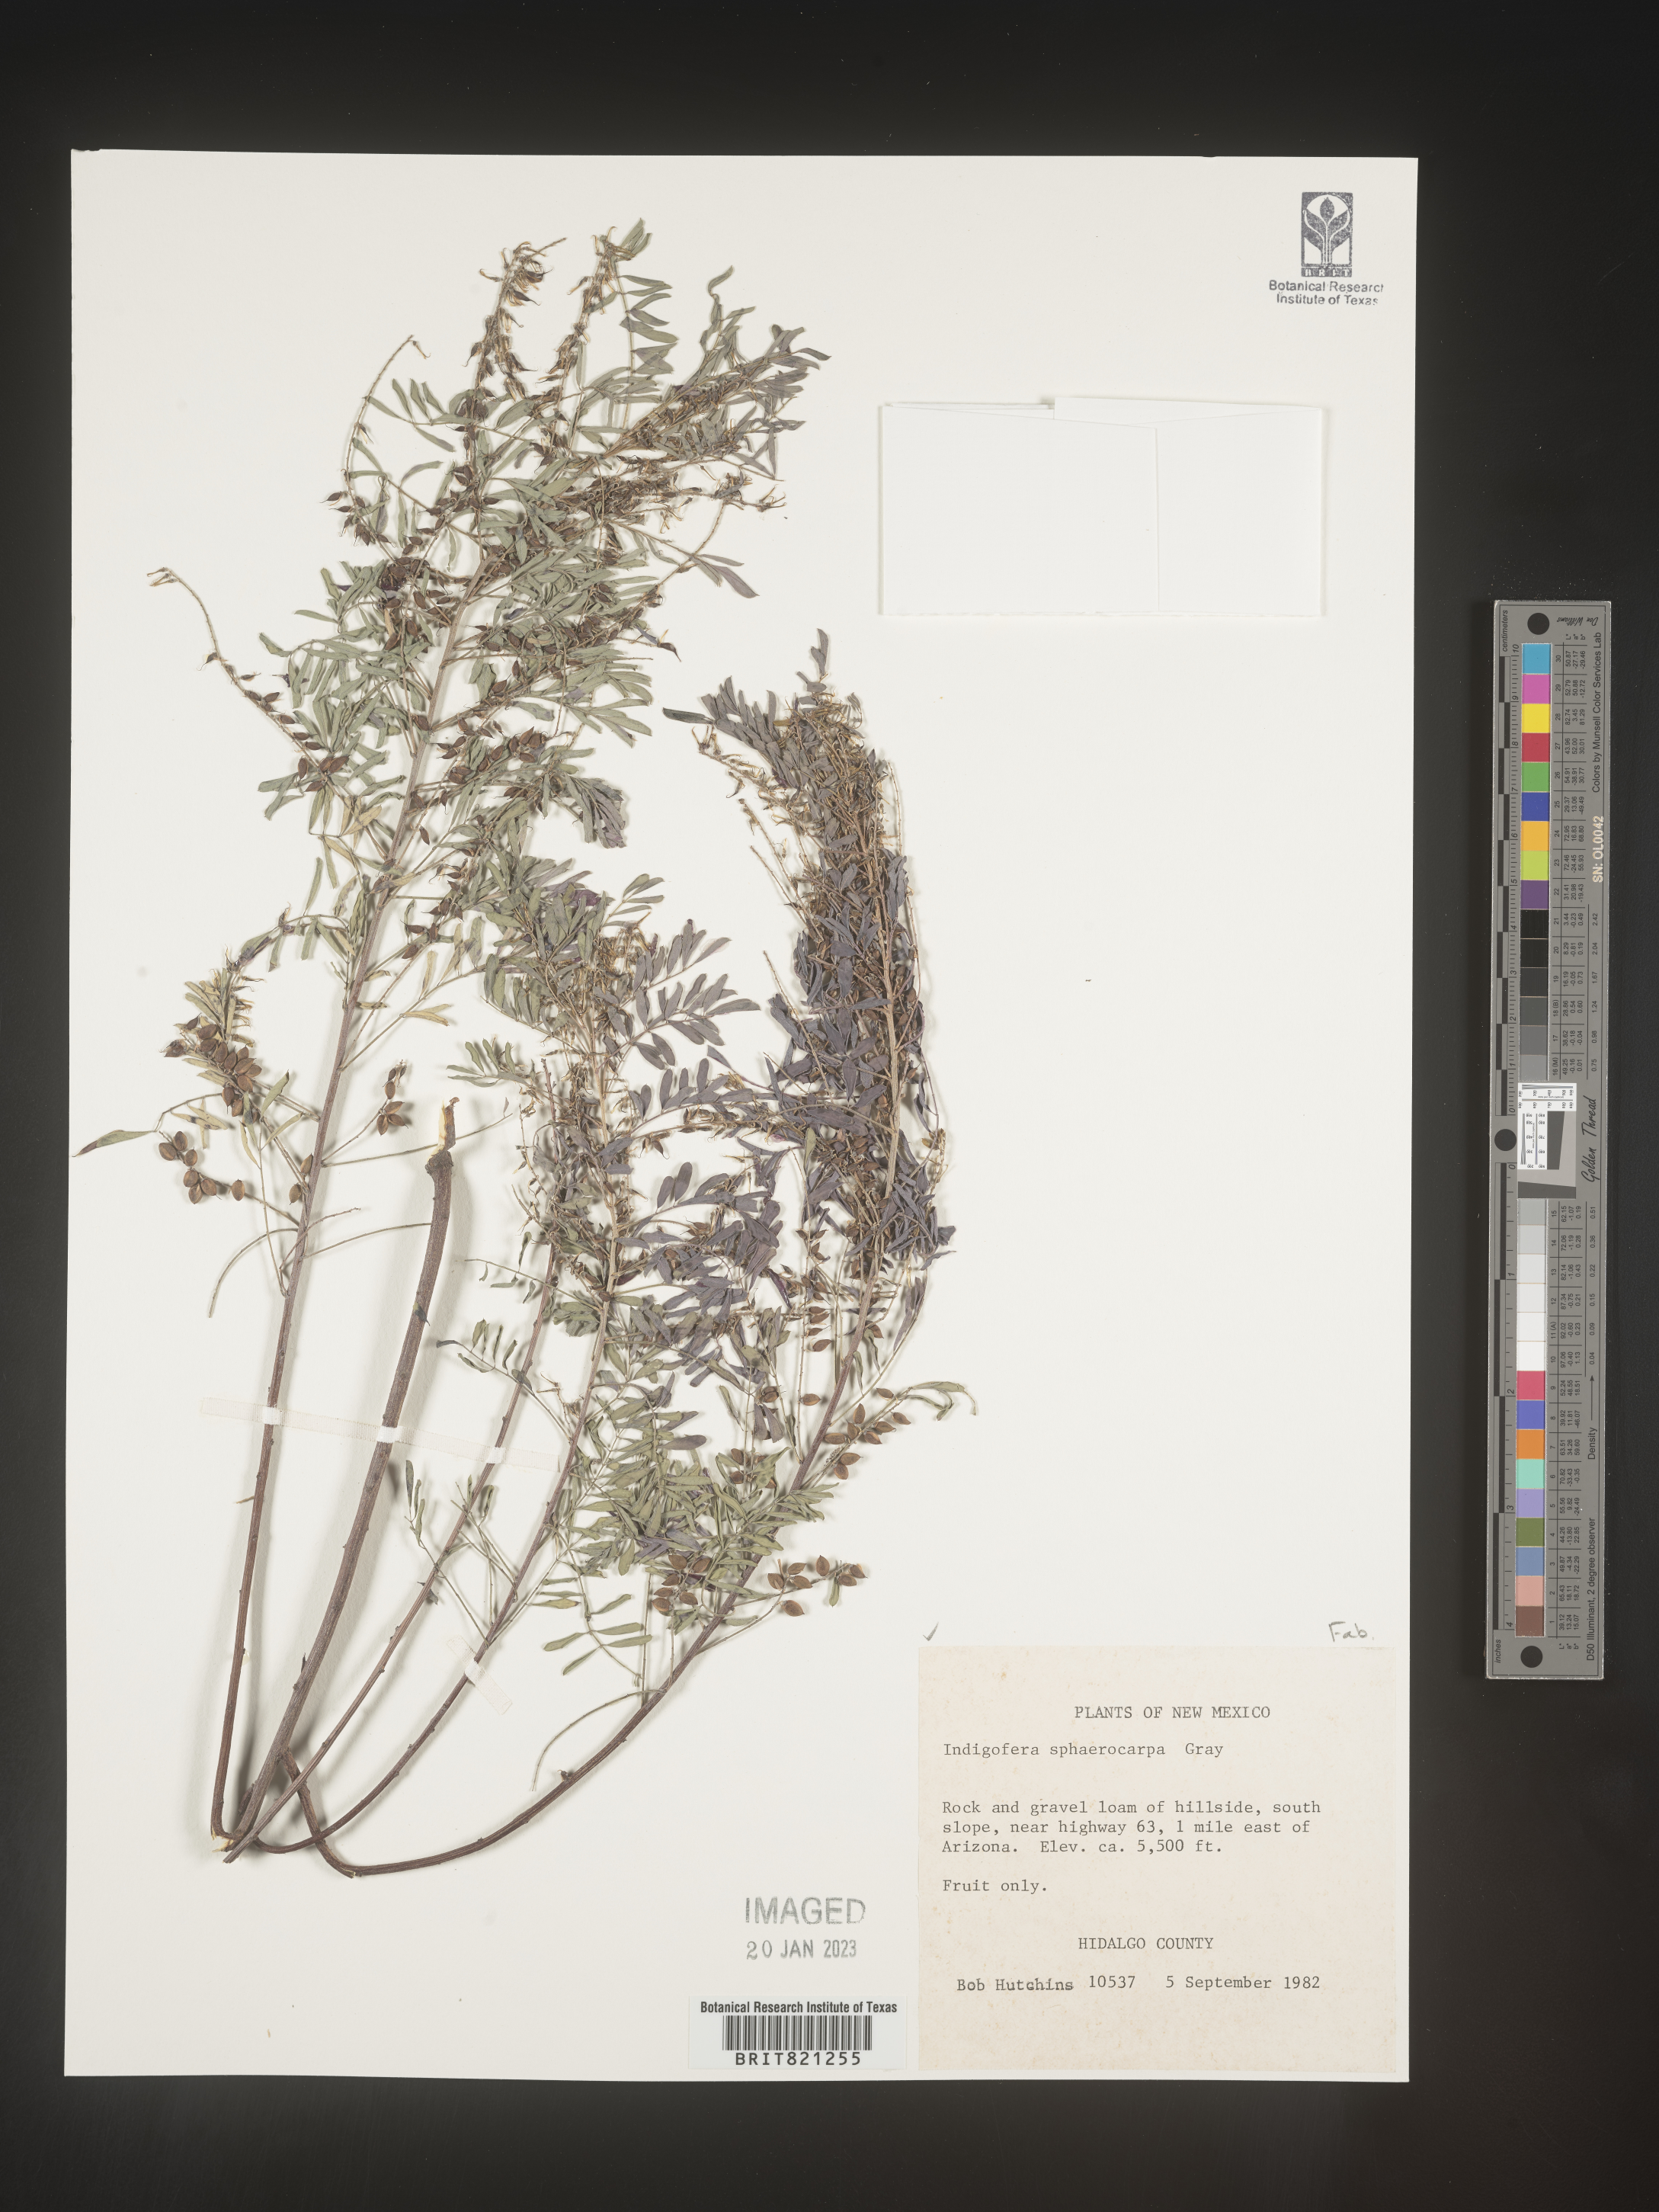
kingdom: Plantae
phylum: Tracheophyta
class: Magnoliopsida
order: Fabales
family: Fabaceae
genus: Indigofera
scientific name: Indigofera
